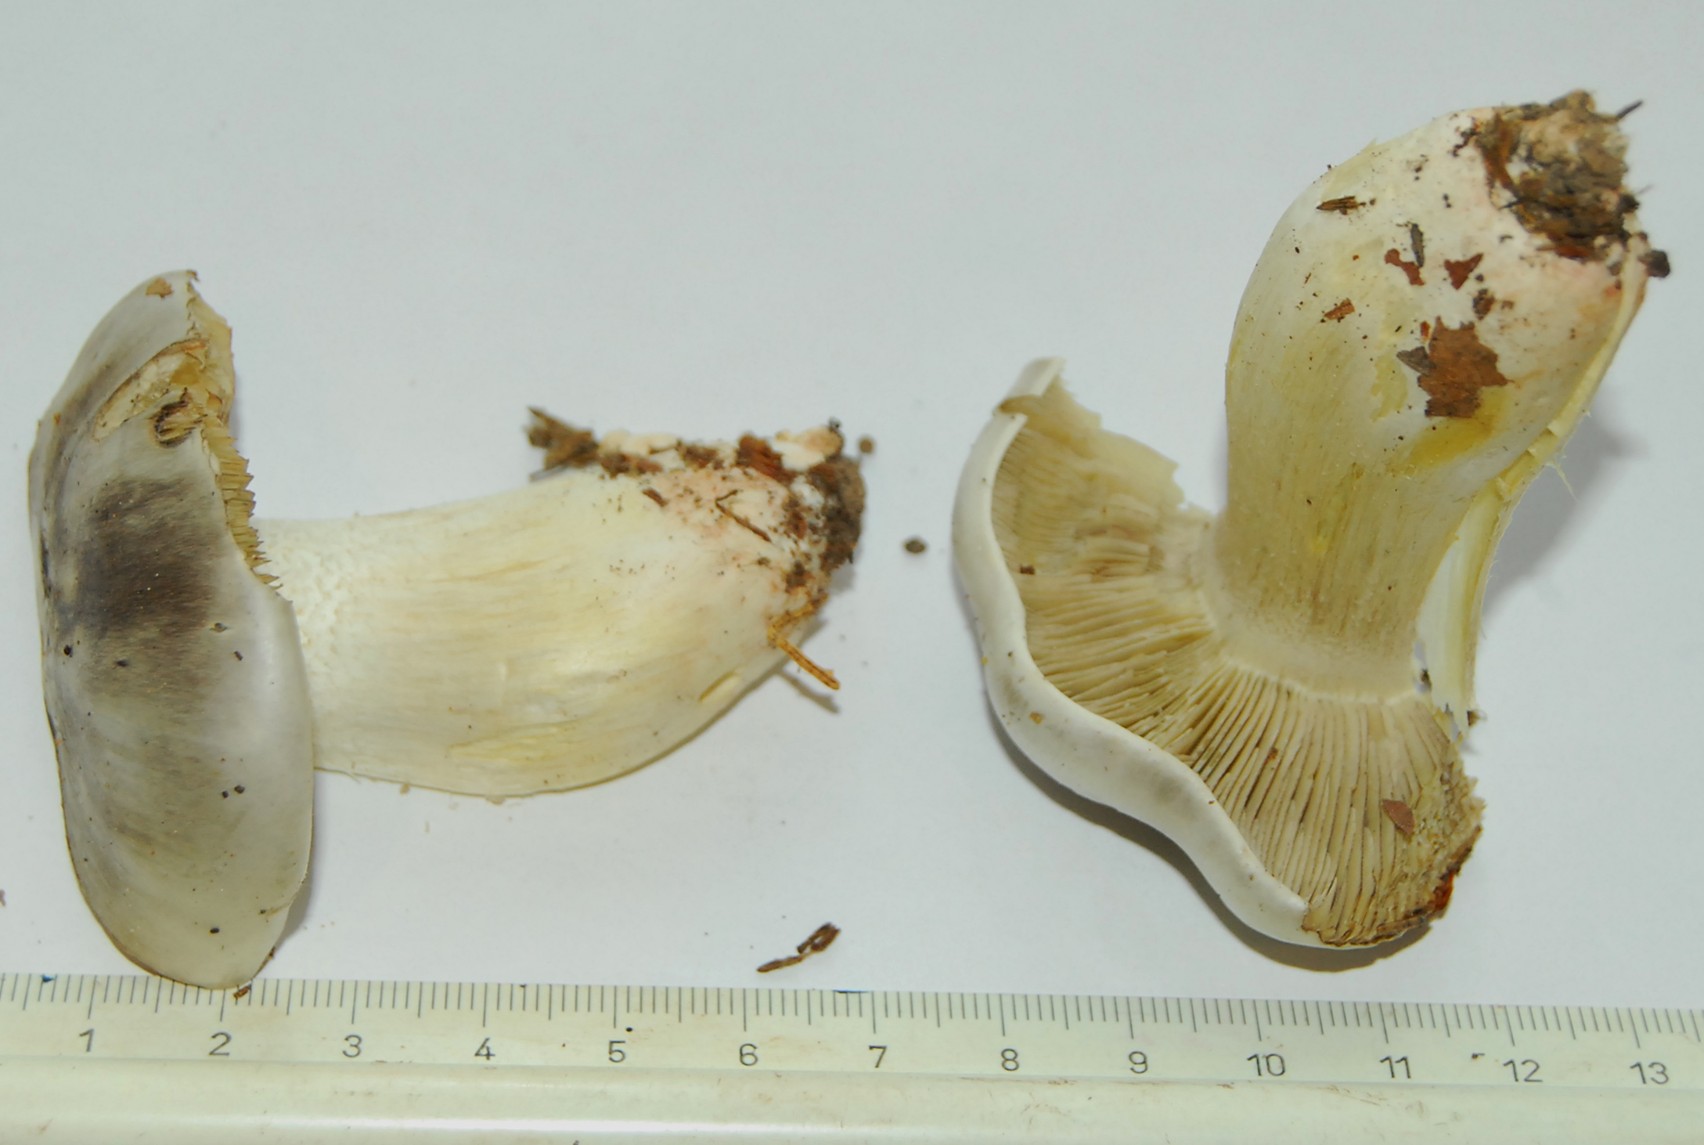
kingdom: Fungi
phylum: Basidiomycota
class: Agaricomycetes
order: Agaricales
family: Tricholomataceae
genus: Tricholoma
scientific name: Tricholoma portentosum
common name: grå ridderhat
